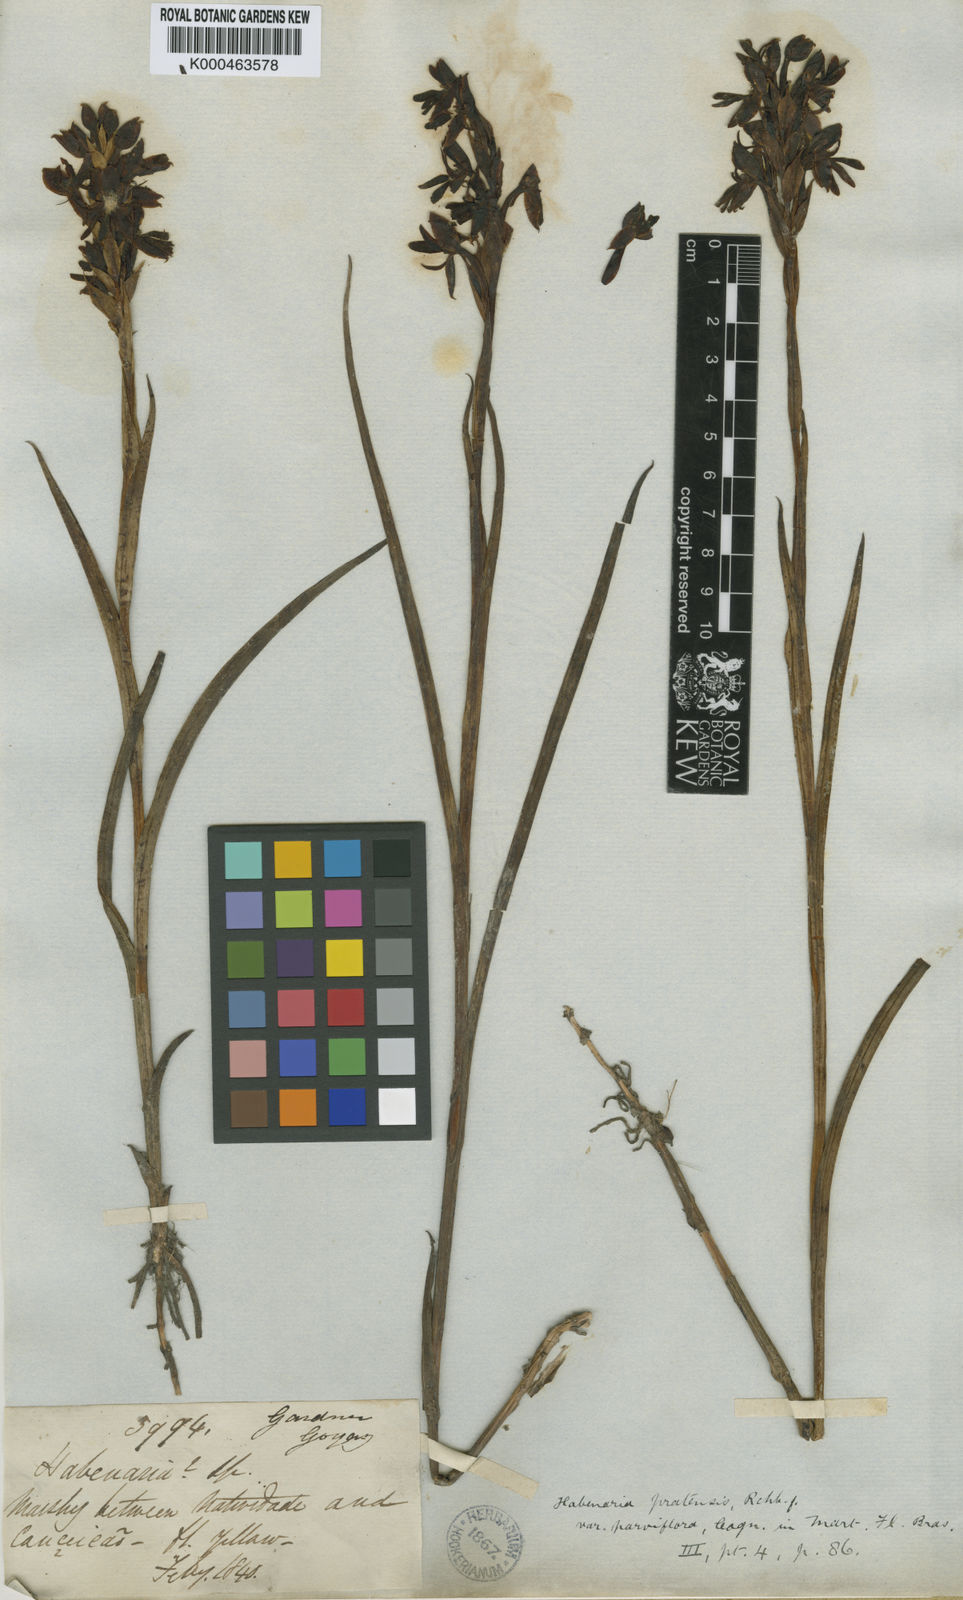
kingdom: Plantae
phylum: Tracheophyta
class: Liliopsida
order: Asparagales
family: Orchidaceae
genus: Habenaria
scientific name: Habenaria spathulifera
